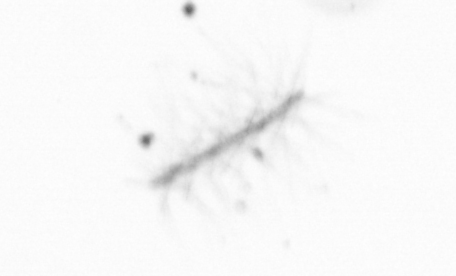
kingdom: Chromista
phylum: Ochrophyta
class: Bacillariophyceae
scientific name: Bacillariophyceae
